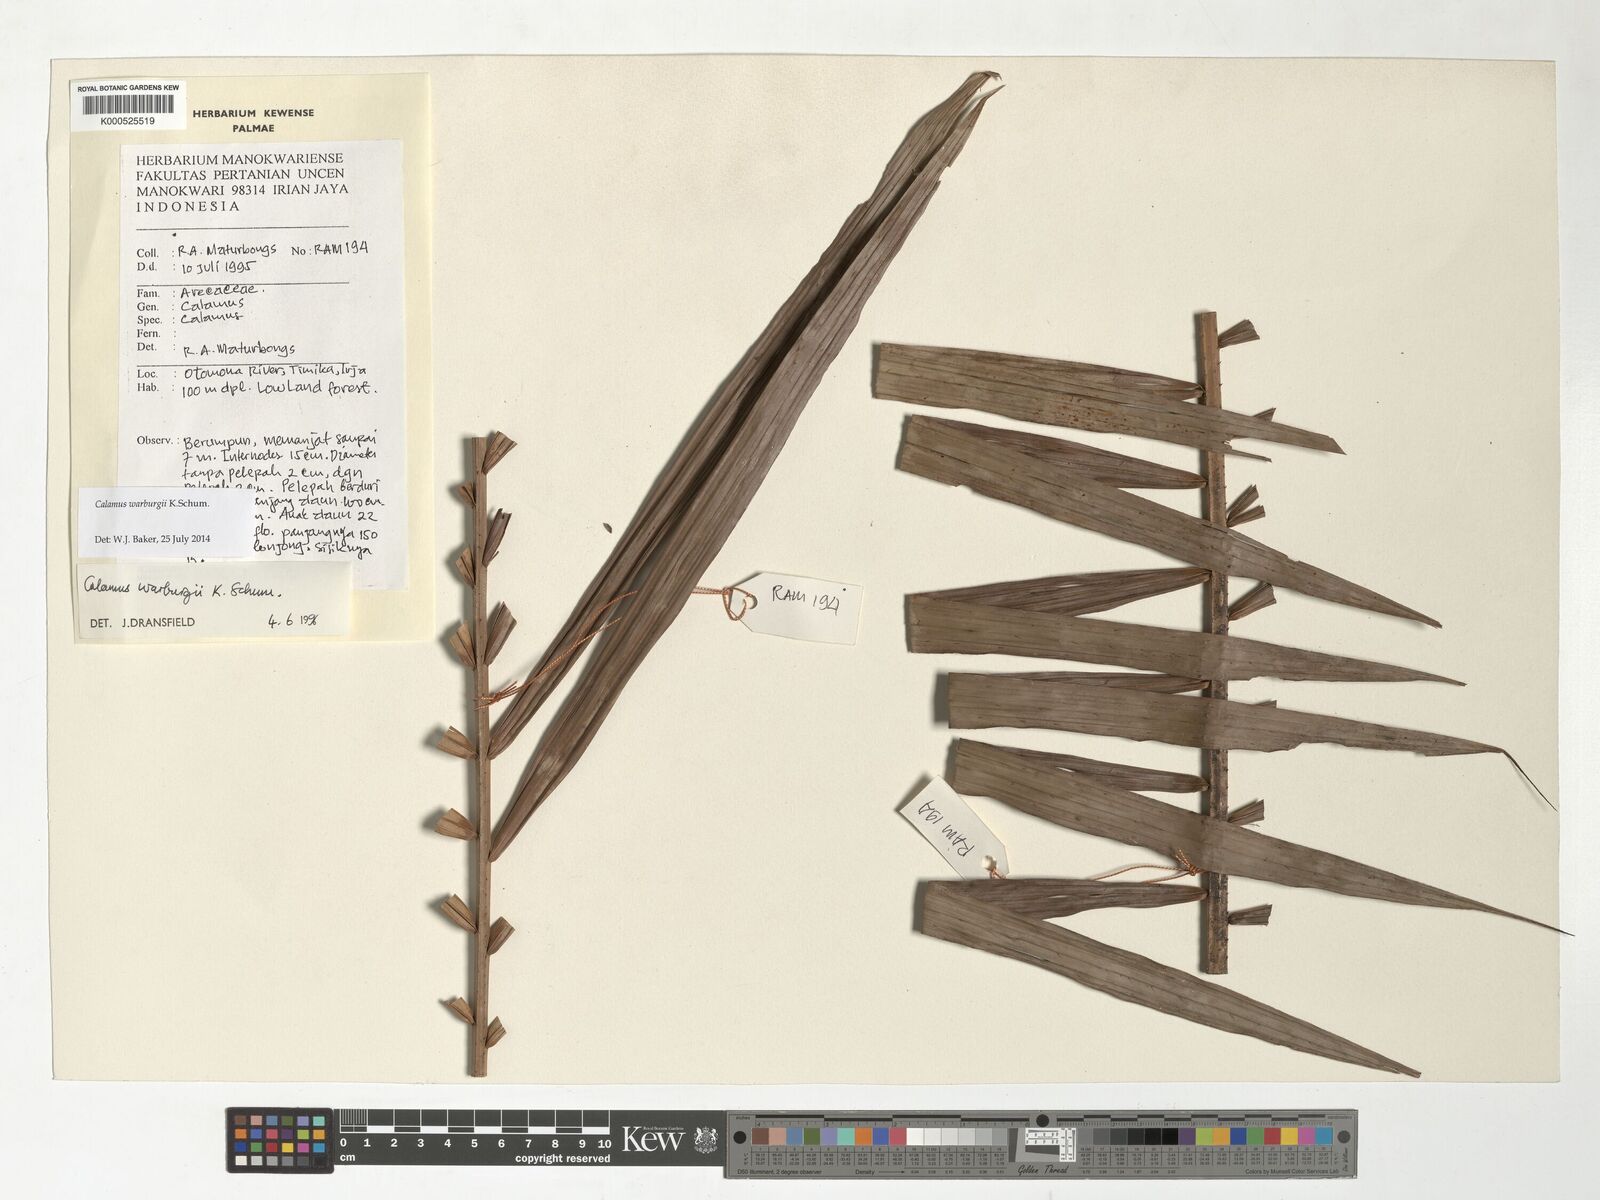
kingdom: Plantae
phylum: Tracheophyta
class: Liliopsida
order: Arecales
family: Arecaceae
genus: Calamus
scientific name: Calamus warburgii
